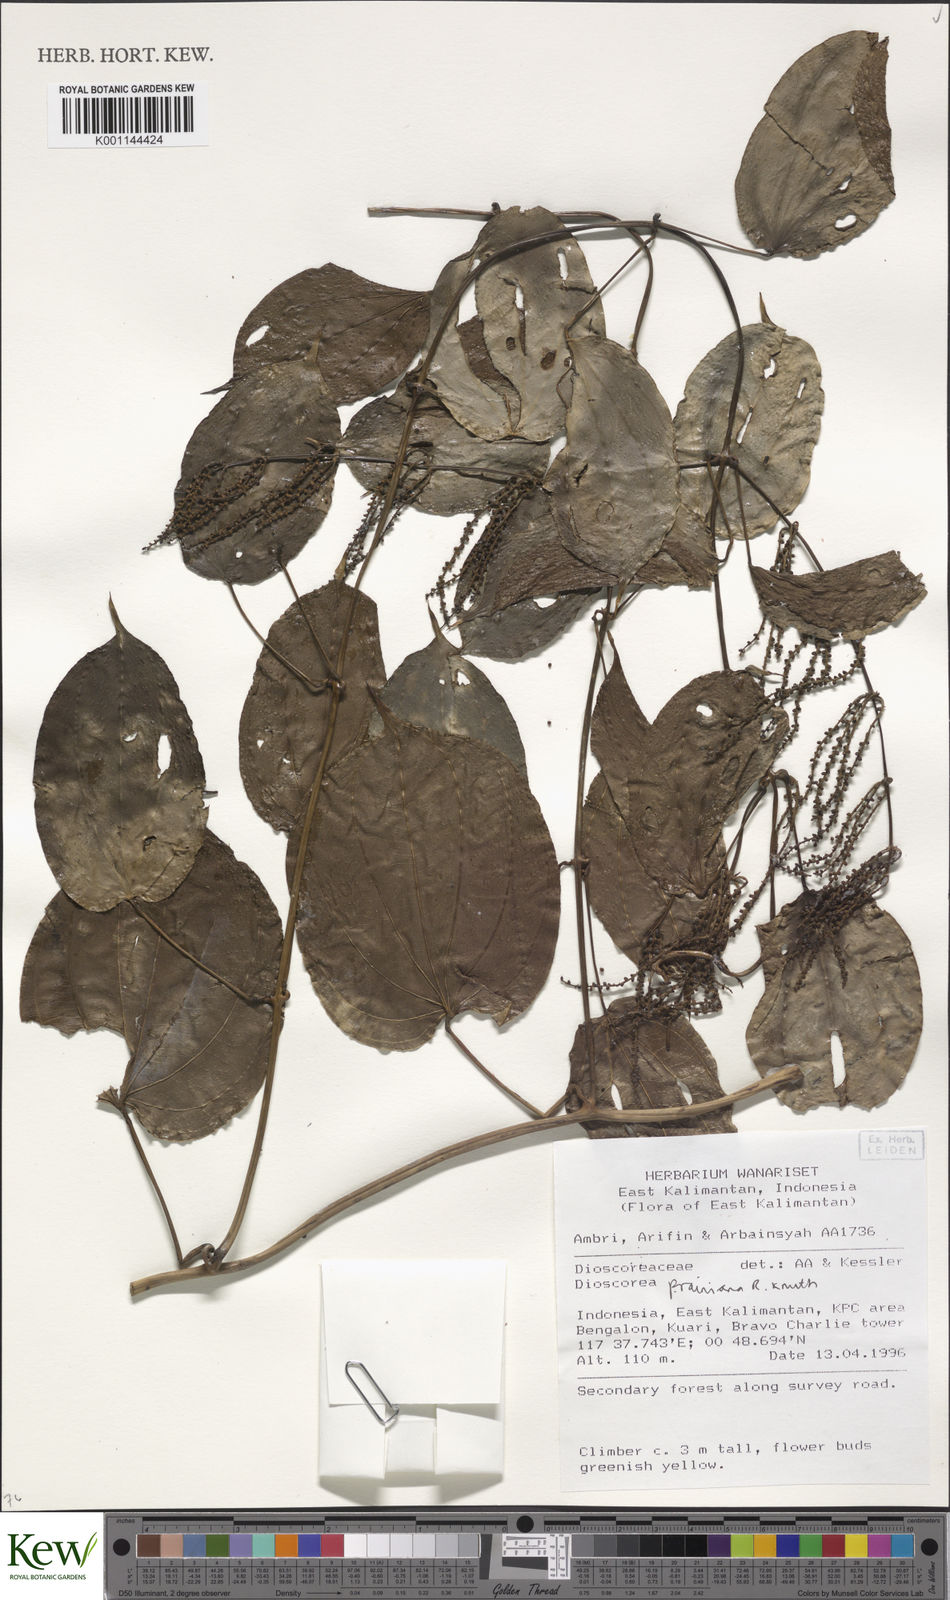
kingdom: Plantae
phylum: Tracheophyta
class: Liliopsida
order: Dioscoreales
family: Dioscoreaceae
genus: Dioscorea
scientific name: Dioscorea
